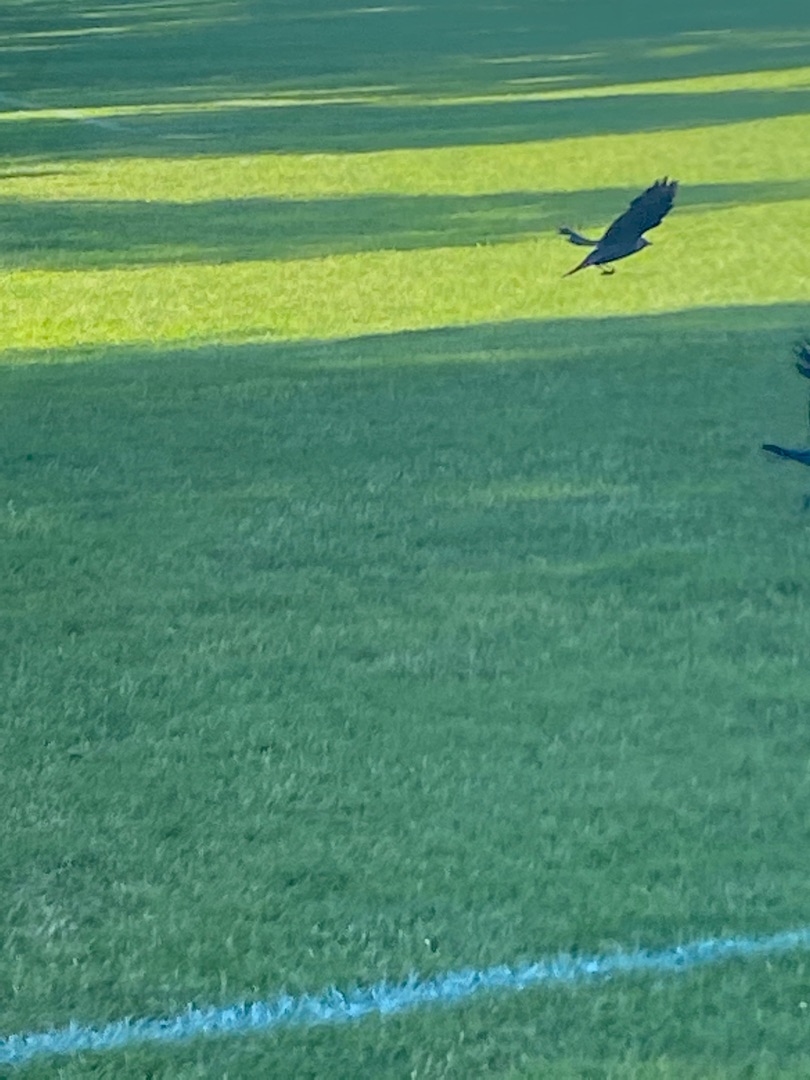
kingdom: Animalia
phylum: Chordata
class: Aves
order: Passeriformes
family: Corvidae
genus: Coloeus
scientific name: Coloeus monedula
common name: Allike
